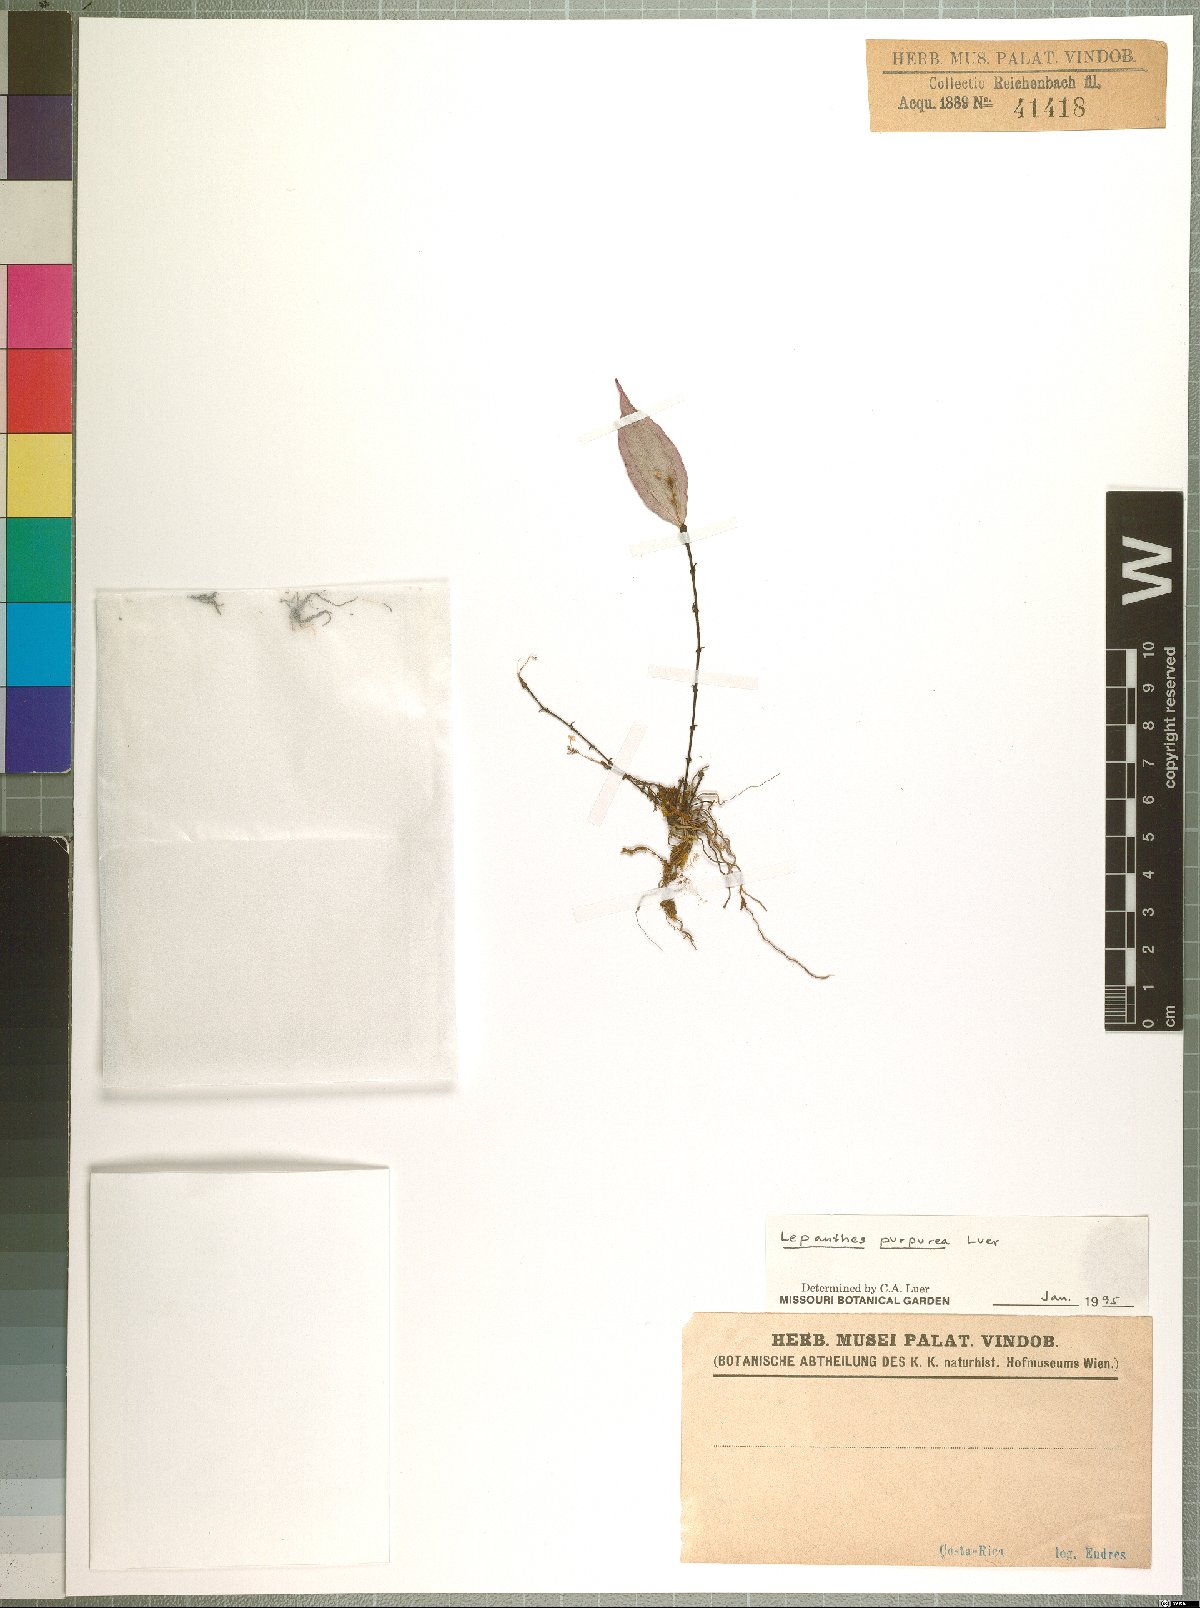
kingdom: Plantae
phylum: Tracheophyta
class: Liliopsida
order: Asparagales
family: Orchidaceae
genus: Lepanthes
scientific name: Lepanthes purpurea
